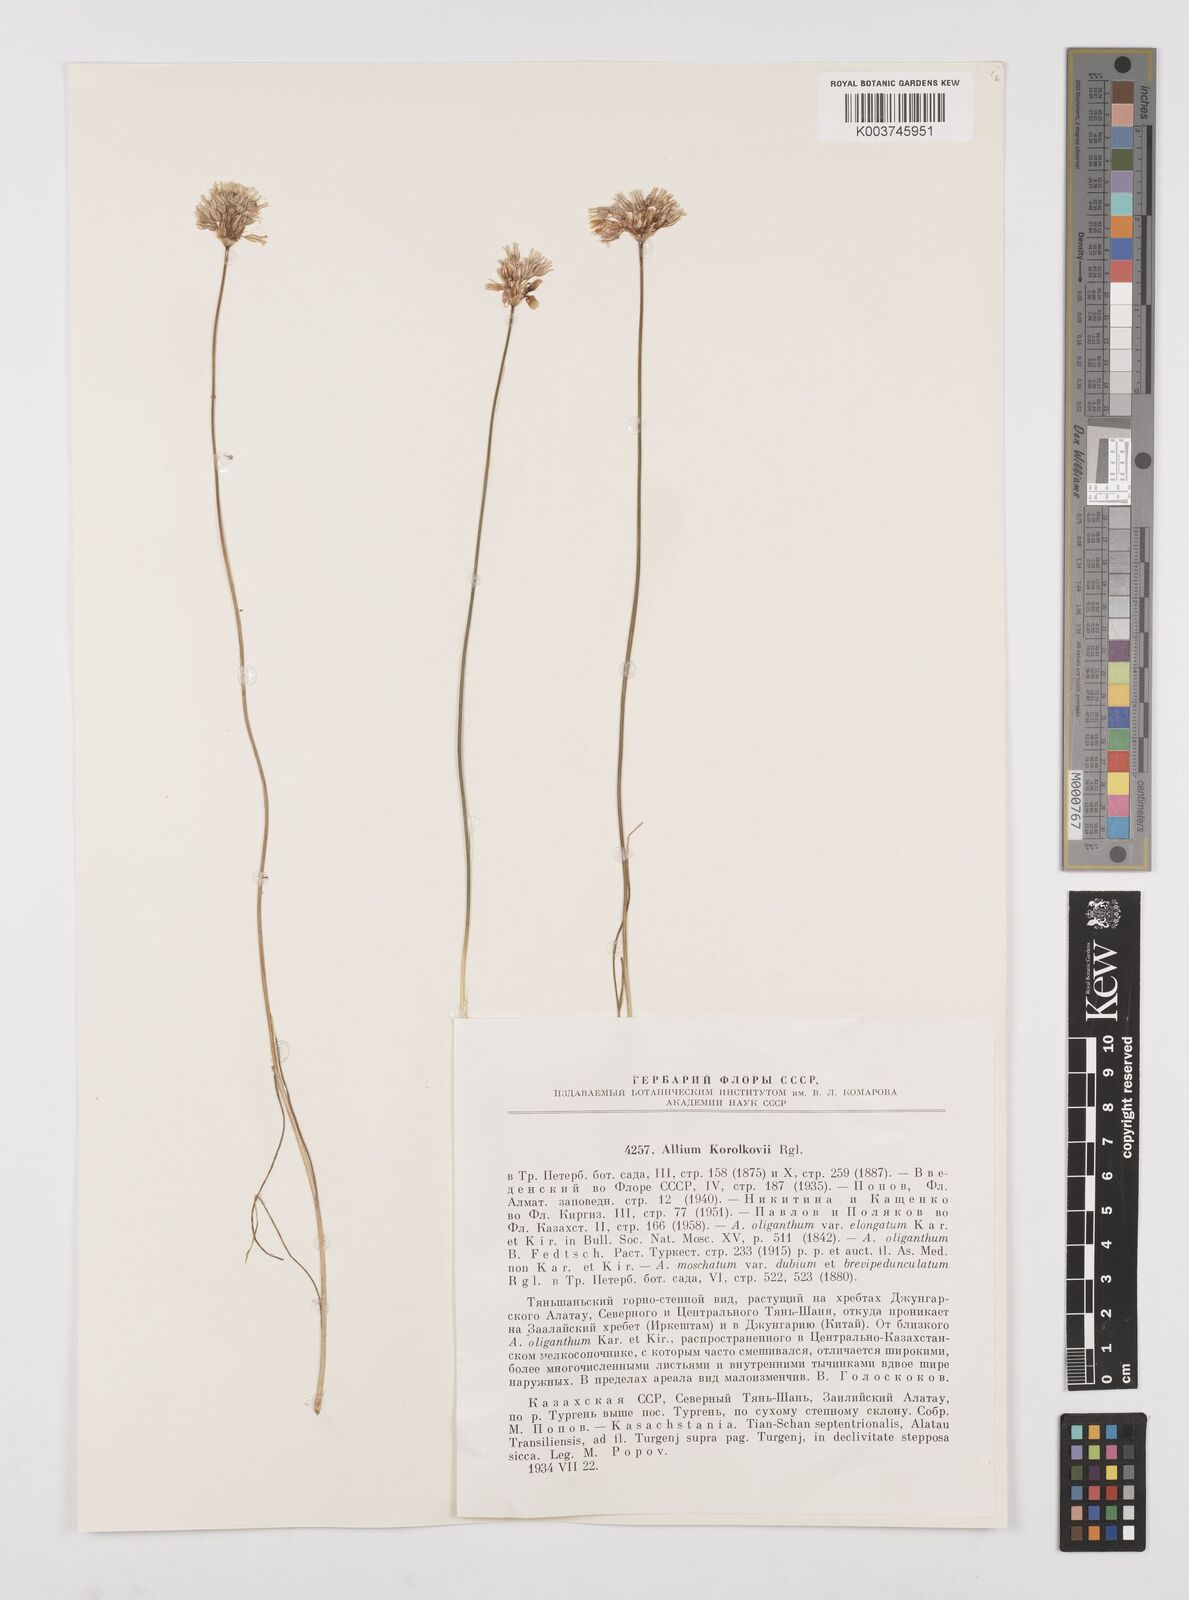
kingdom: Plantae
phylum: Tracheophyta
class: Liliopsida
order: Asparagales
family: Amaryllidaceae
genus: Allium
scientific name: Allium korolkowii
